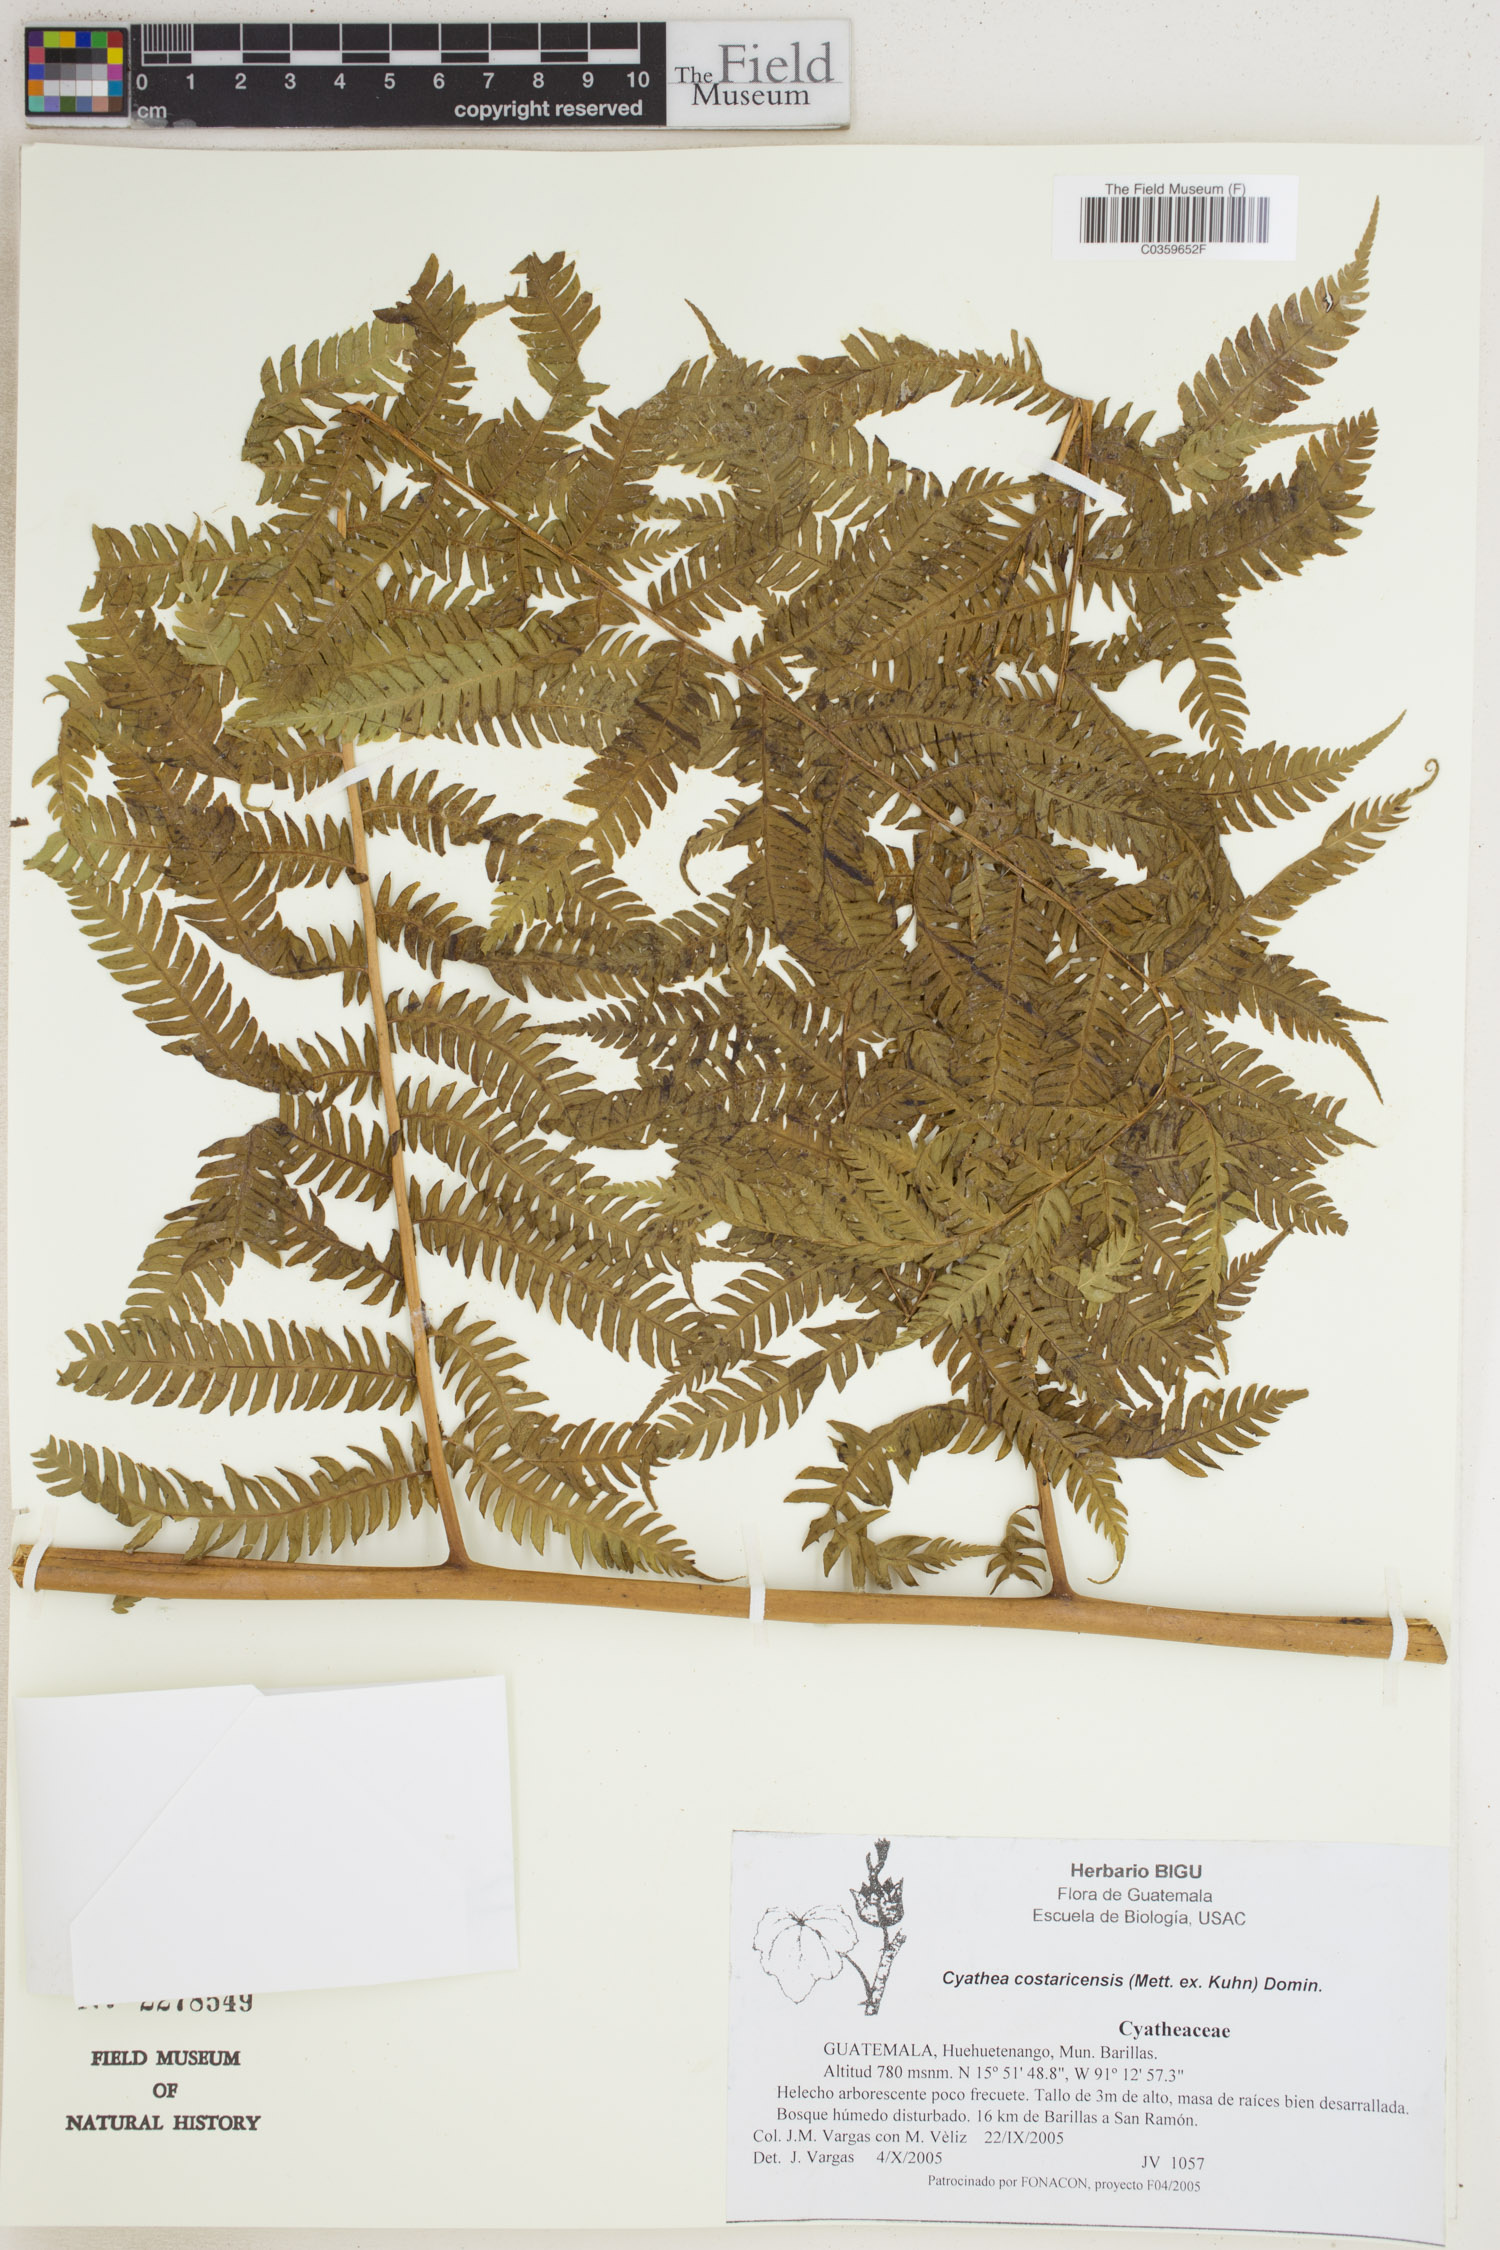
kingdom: Plantae
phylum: Tracheophyta
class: Polypodiopsida
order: Cyatheales
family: Cyatheaceae
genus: Cyathea
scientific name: Cyathea costaricensis
